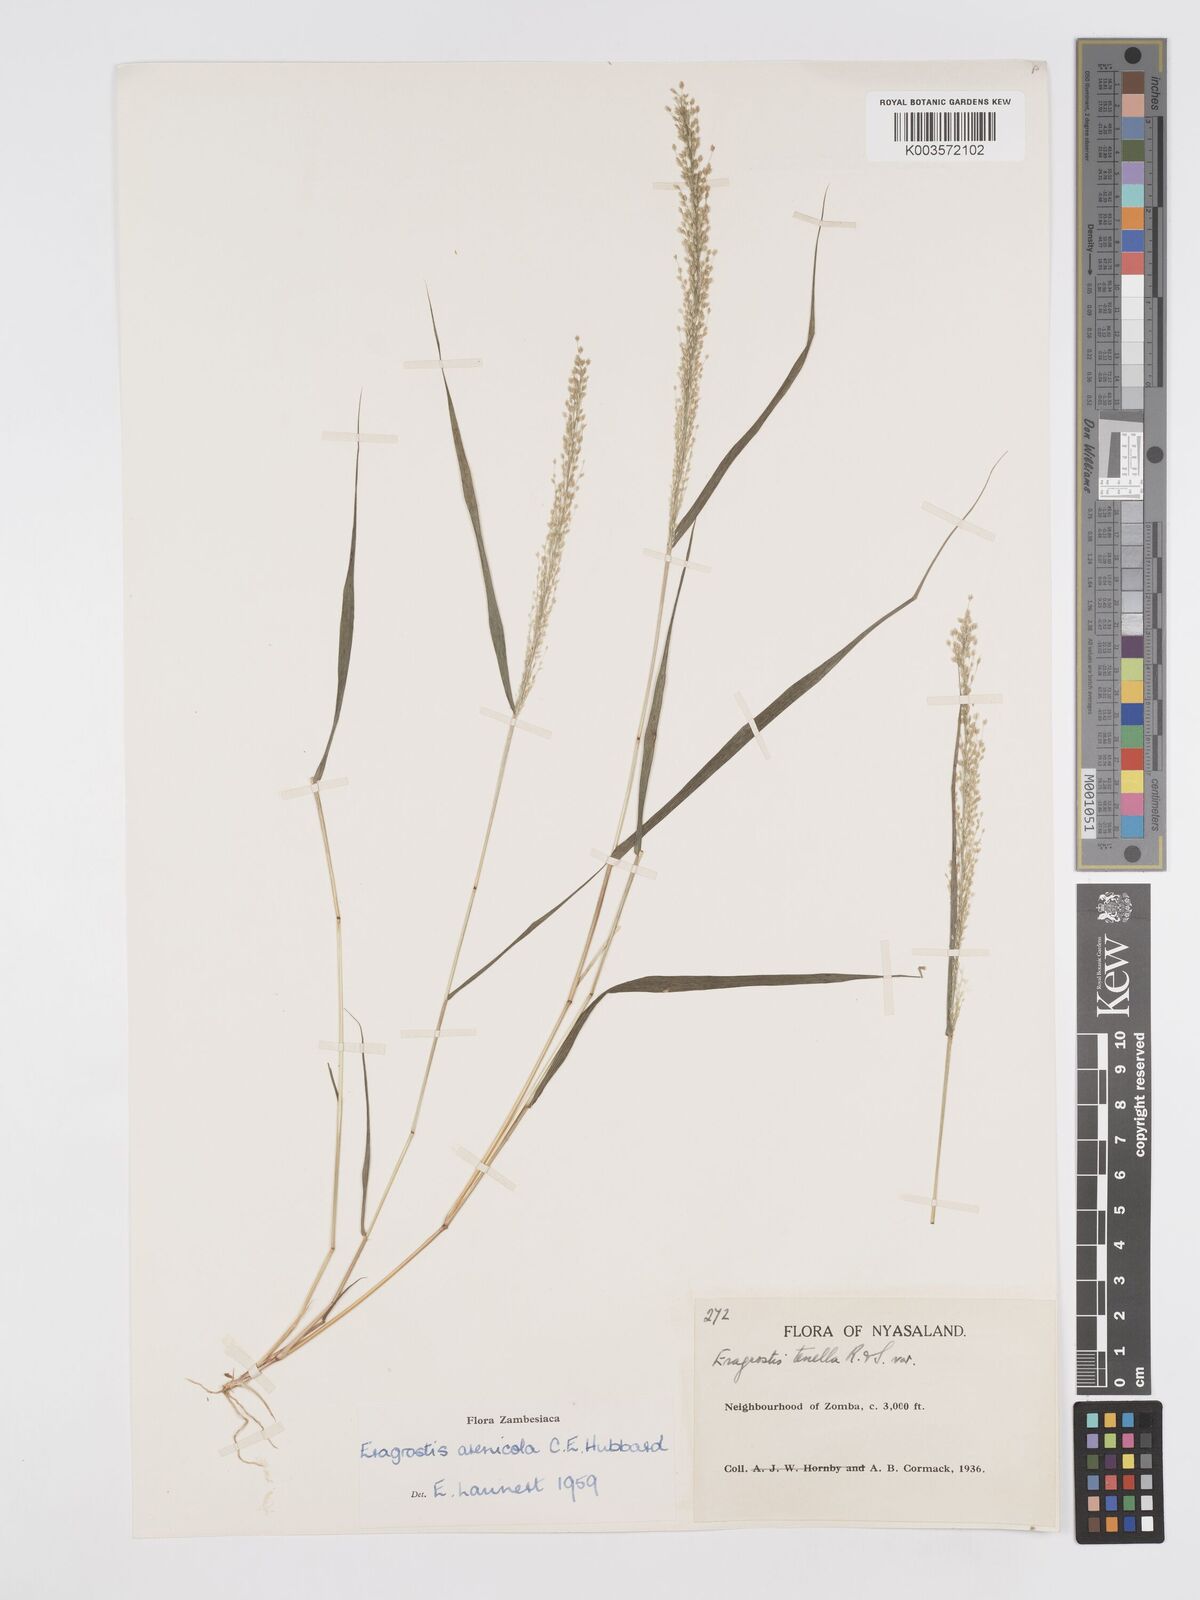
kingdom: Plantae
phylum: Tracheophyta
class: Liliopsida
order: Poales
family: Poaceae
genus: Eragrostis
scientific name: Eragrostis arenicola
